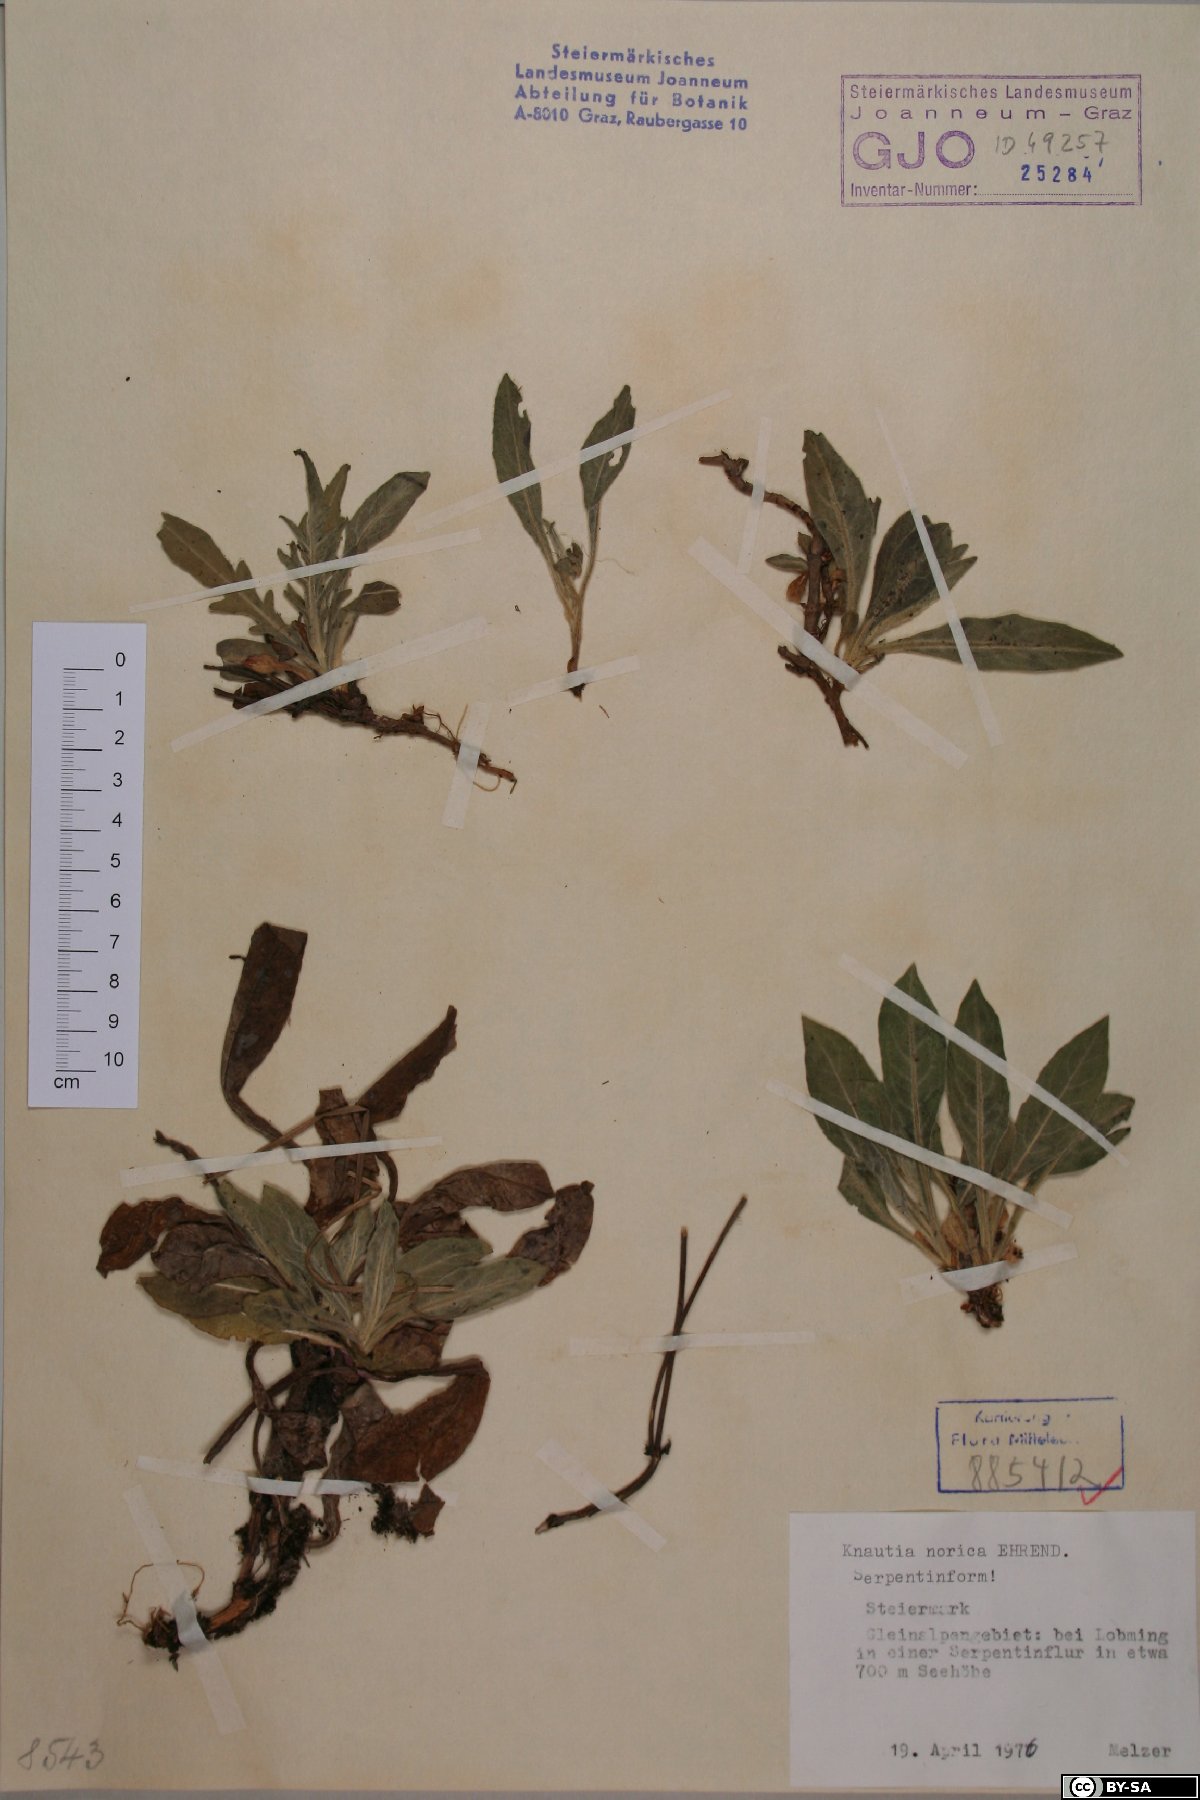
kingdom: Plantae
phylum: Tracheophyta
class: Magnoliopsida
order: Dipsacales
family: Caprifoliaceae
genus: Knautia
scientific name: Knautia norica
